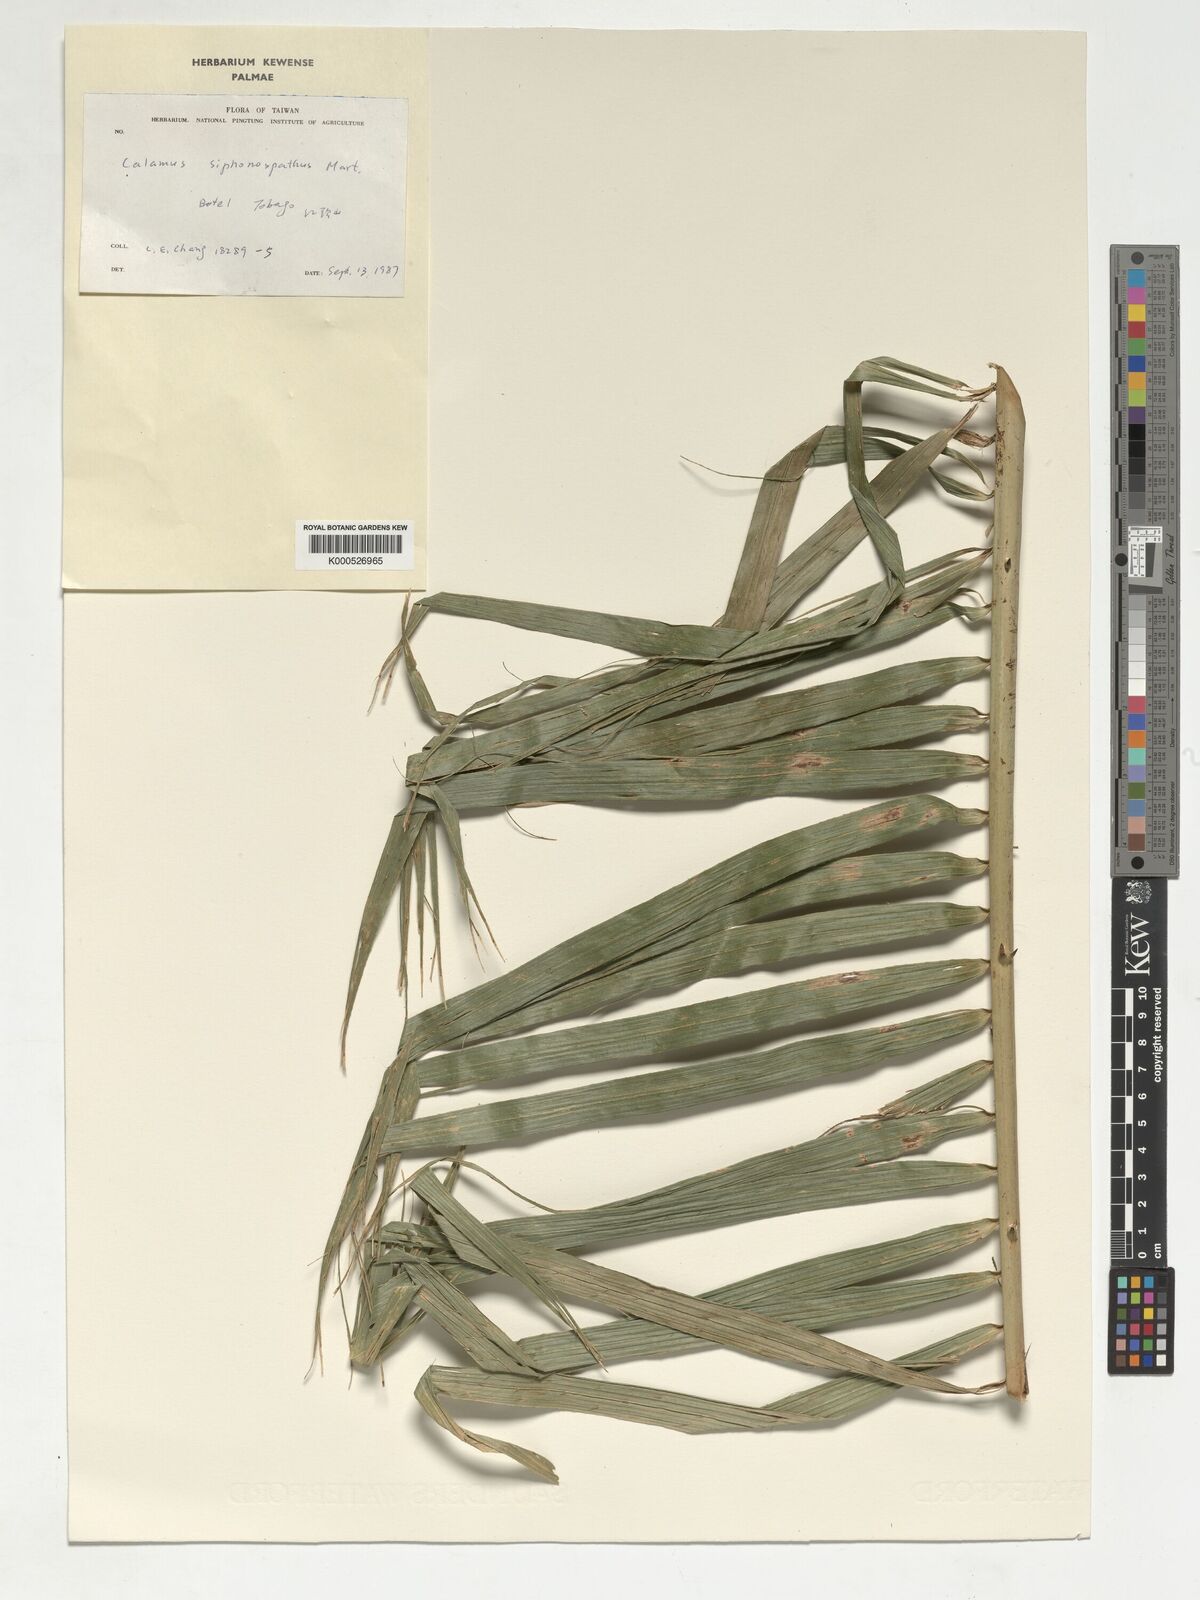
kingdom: Plantae
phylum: Tracheophyta
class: Liliopsida
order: Arecales
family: Arecaceae
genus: Calamus
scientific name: Calamus siphonospathus
